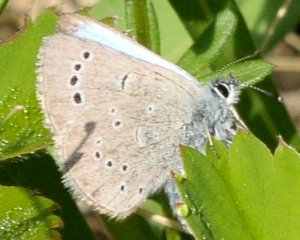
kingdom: Animalia
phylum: Arthropoda
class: Insecta
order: Lepidoptera
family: Lycaenidae
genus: Glaucopsyche
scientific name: Glaucopsyche lygdamus
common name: Silvery Blue
